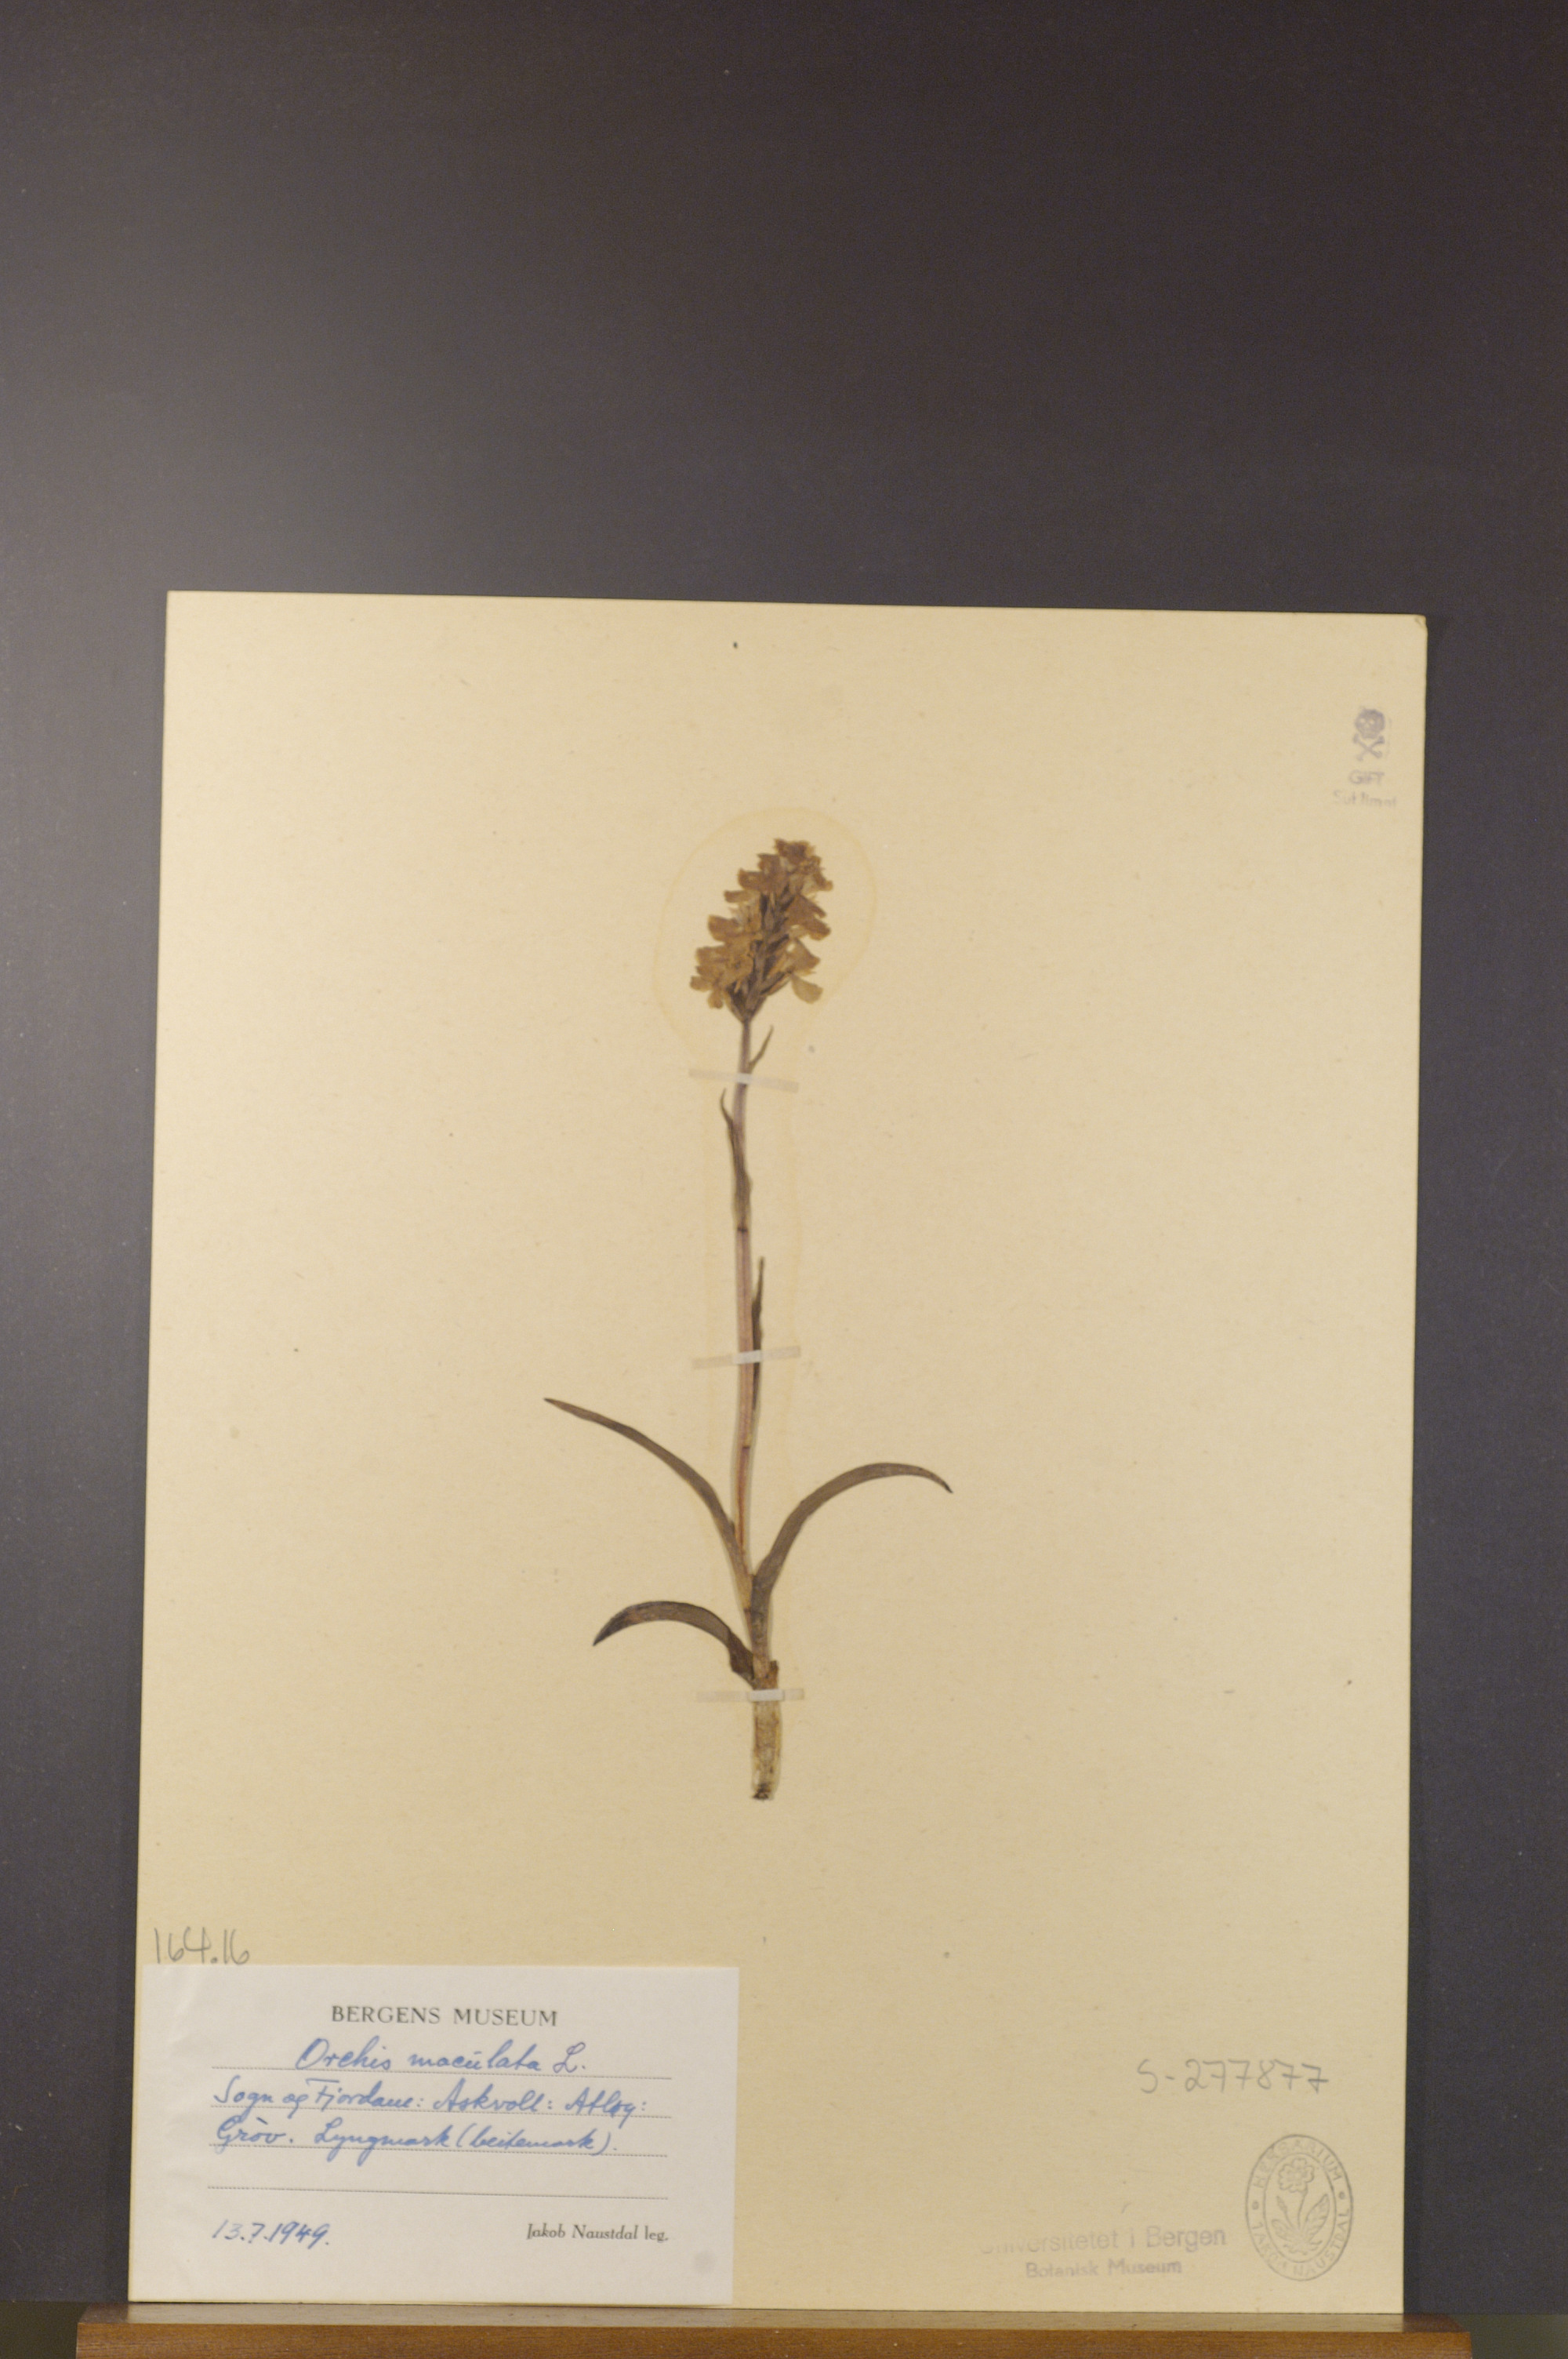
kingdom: Plantae
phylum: Tracheophyta
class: Liliopsida
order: Asparagales
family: Orchidaceae
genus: Dactylorhiza
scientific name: Dactylorhiza maculata
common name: Heath spotted-orchid
